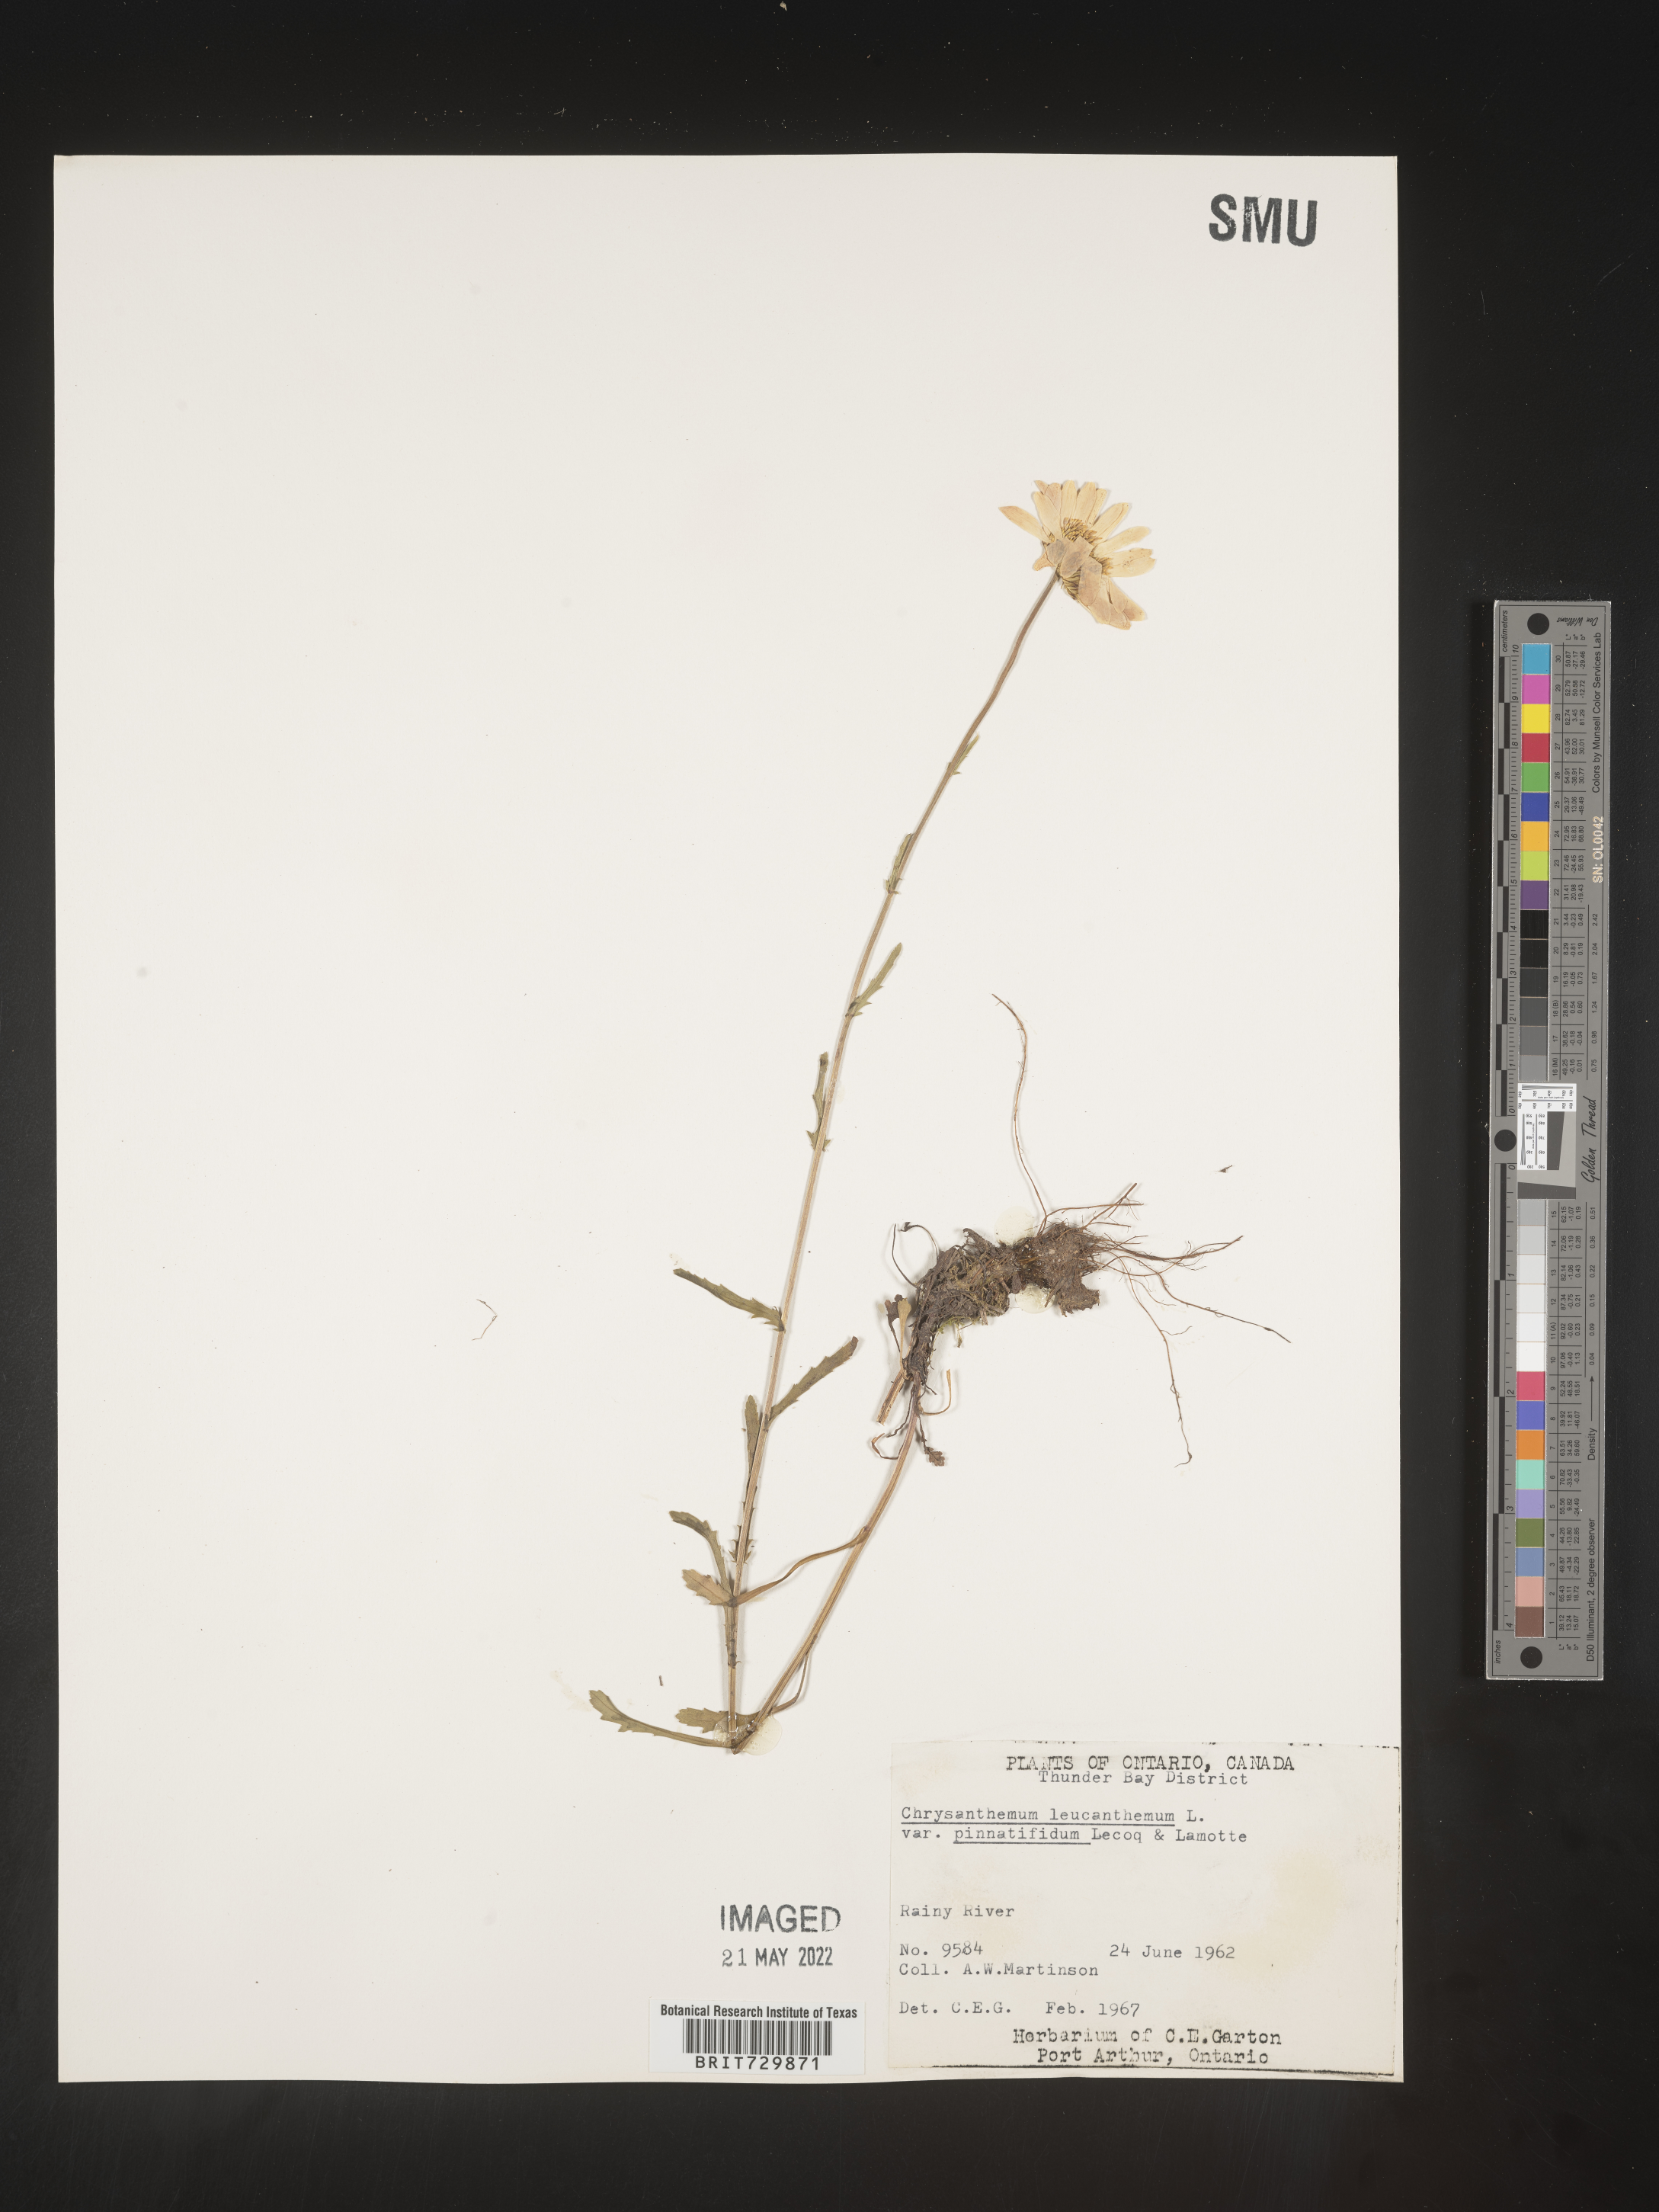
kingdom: Plantae
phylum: Tracheophyta
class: Magnoliopsida
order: Asterales
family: Asteraceae
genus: Leucanthemum
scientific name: Leucanthemum vulgare
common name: Oxeye daisy
